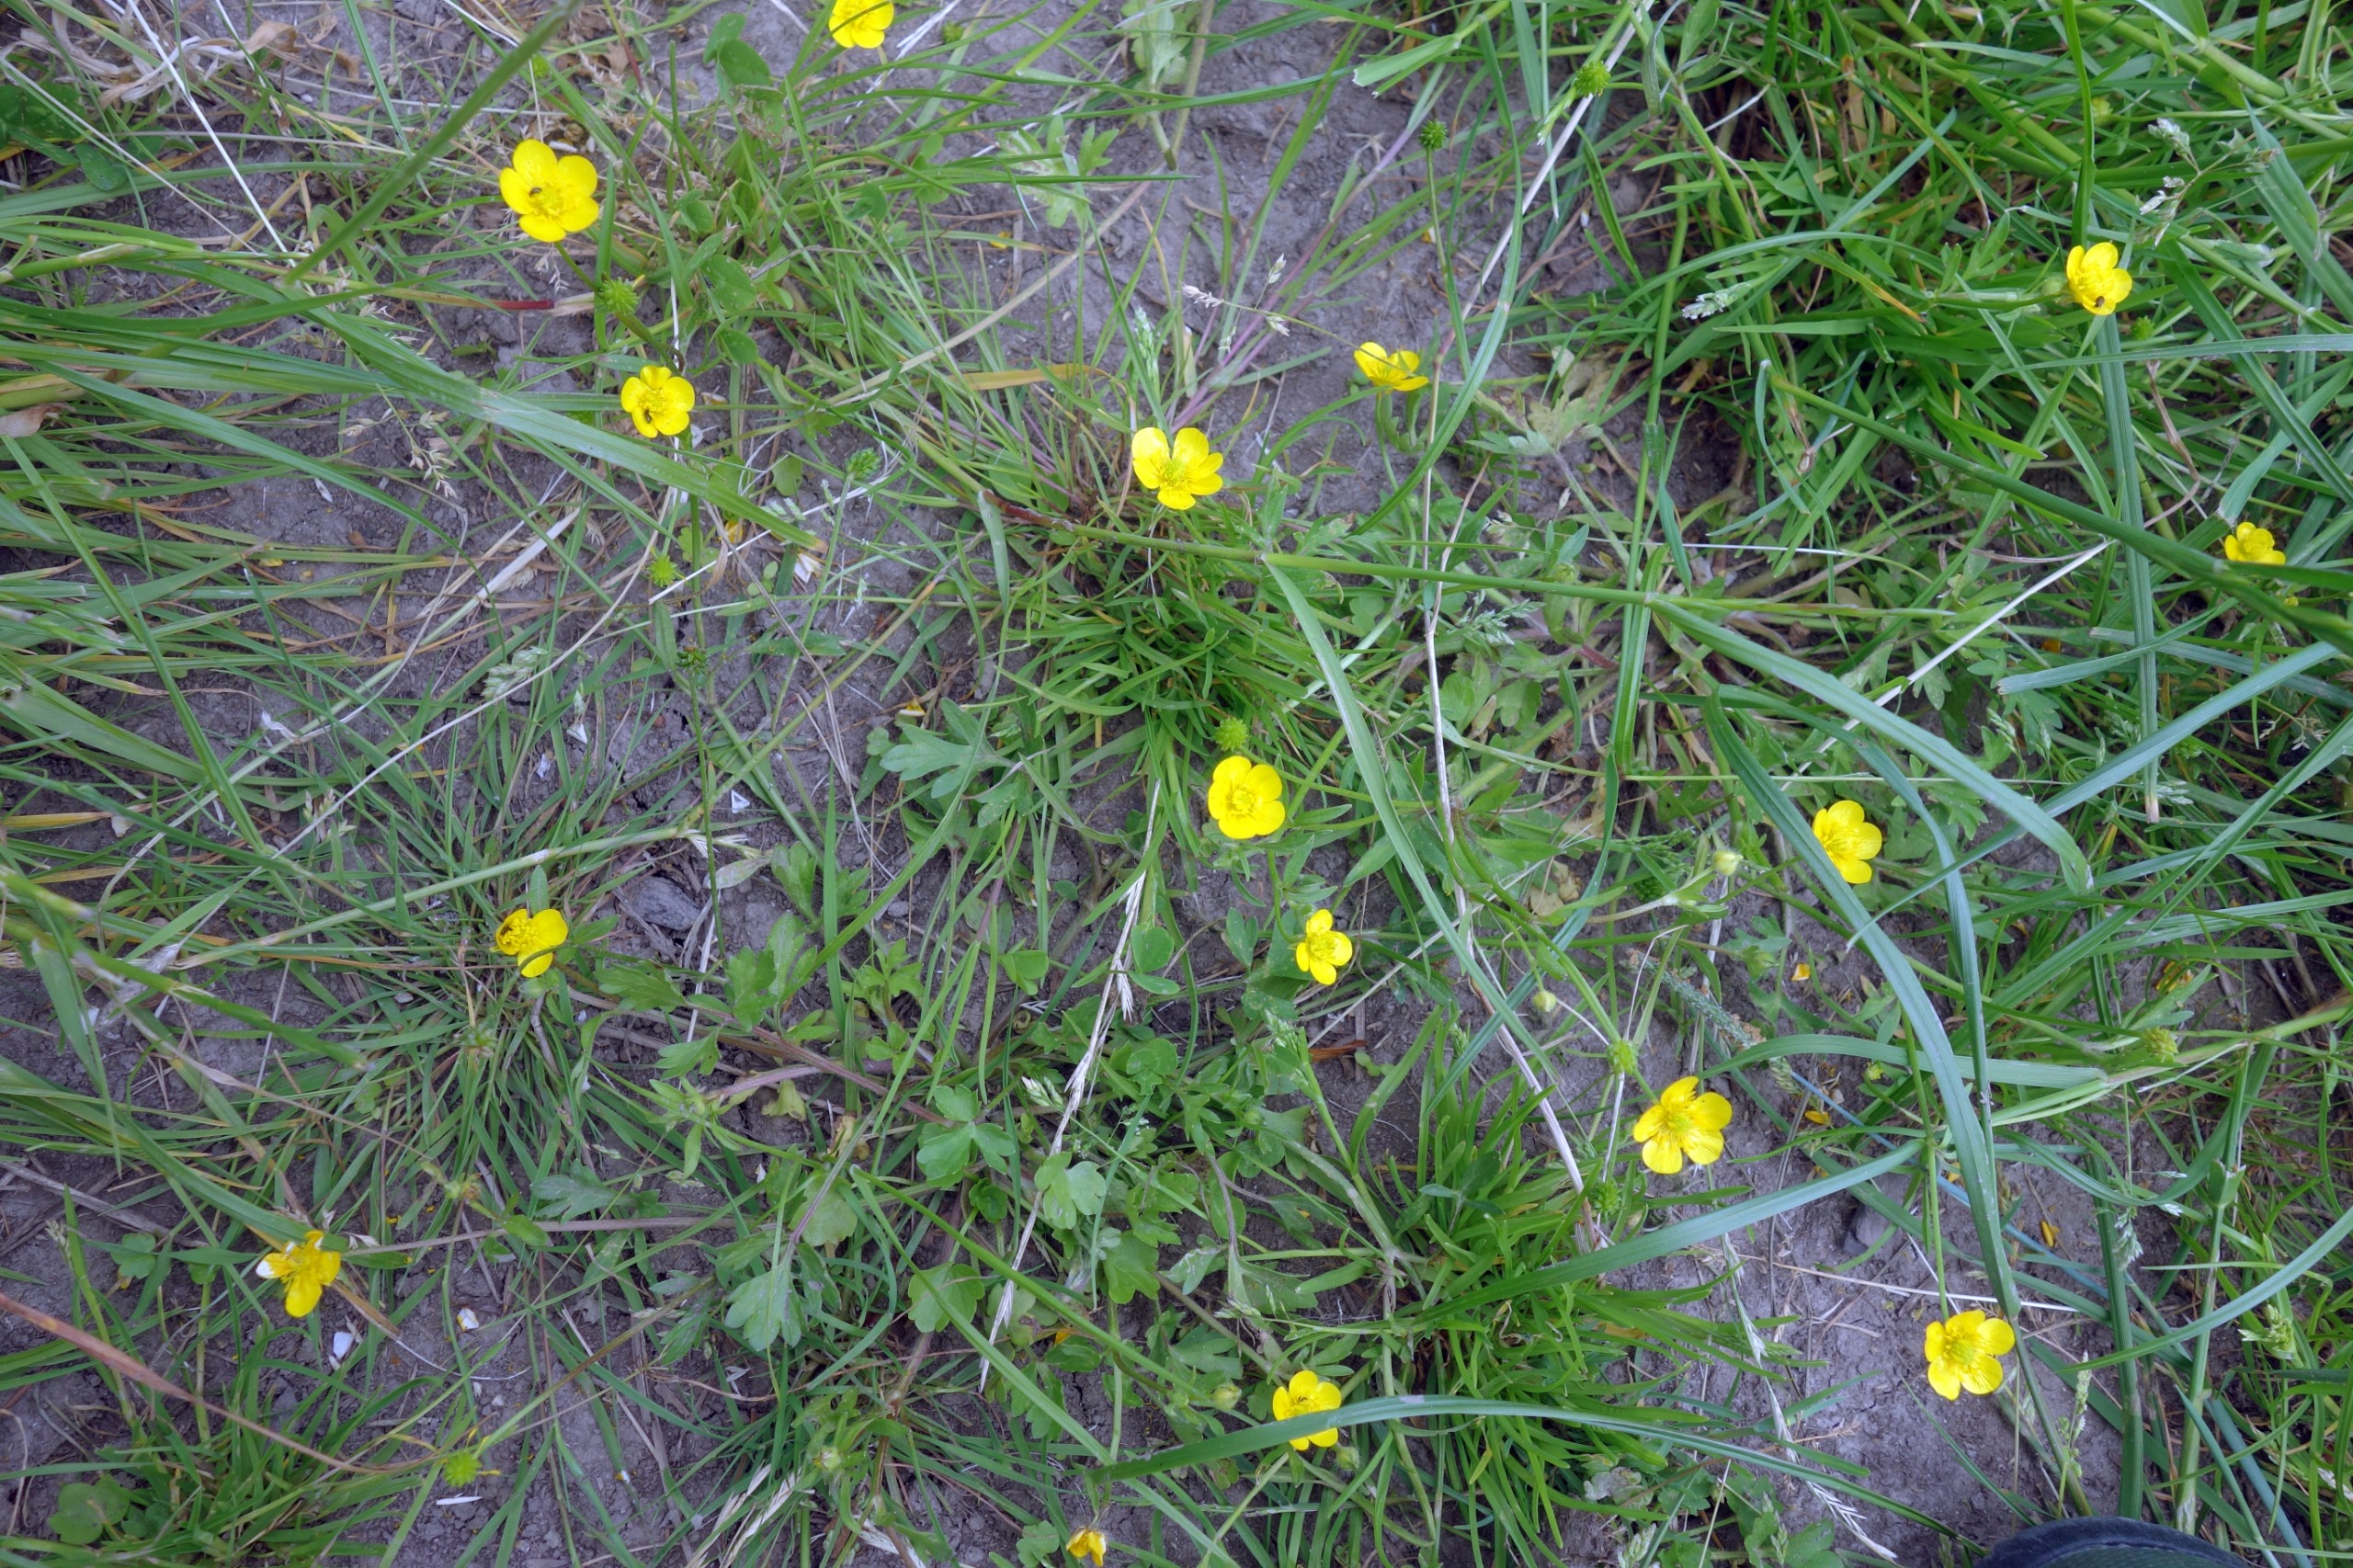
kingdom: Plantae
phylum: Tracheophyta
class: Magnoliopsida
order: Ranunculales
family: Ranunculaceae
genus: Ranunculus
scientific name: Ranunculus sardous
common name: Stivhåret ranunkel
